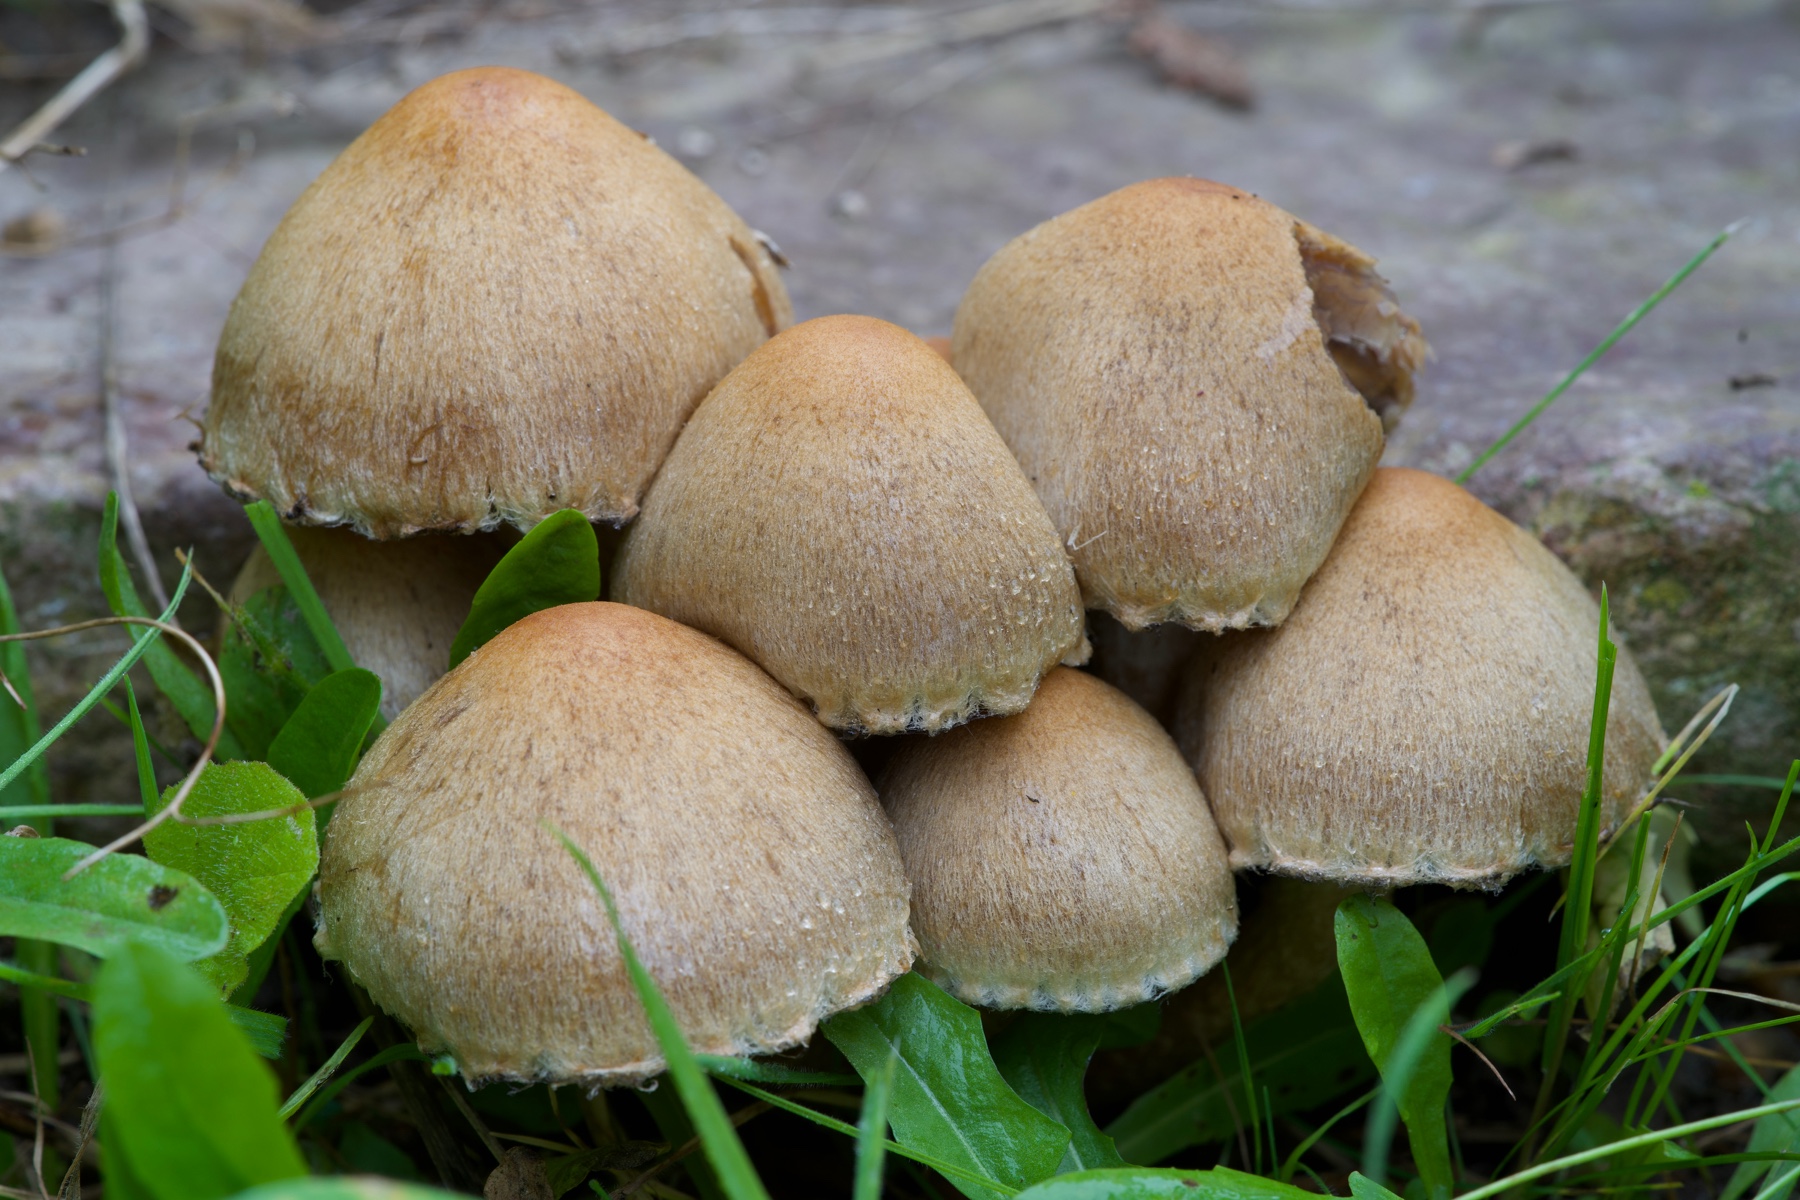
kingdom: Fungi
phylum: Basidiomycota
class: Agaricomycetes
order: Agaricales
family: Psathyrellaceae
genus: Lacrymaria
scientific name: Lacrymaria lacrymabunda
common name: grædende mørkhat
